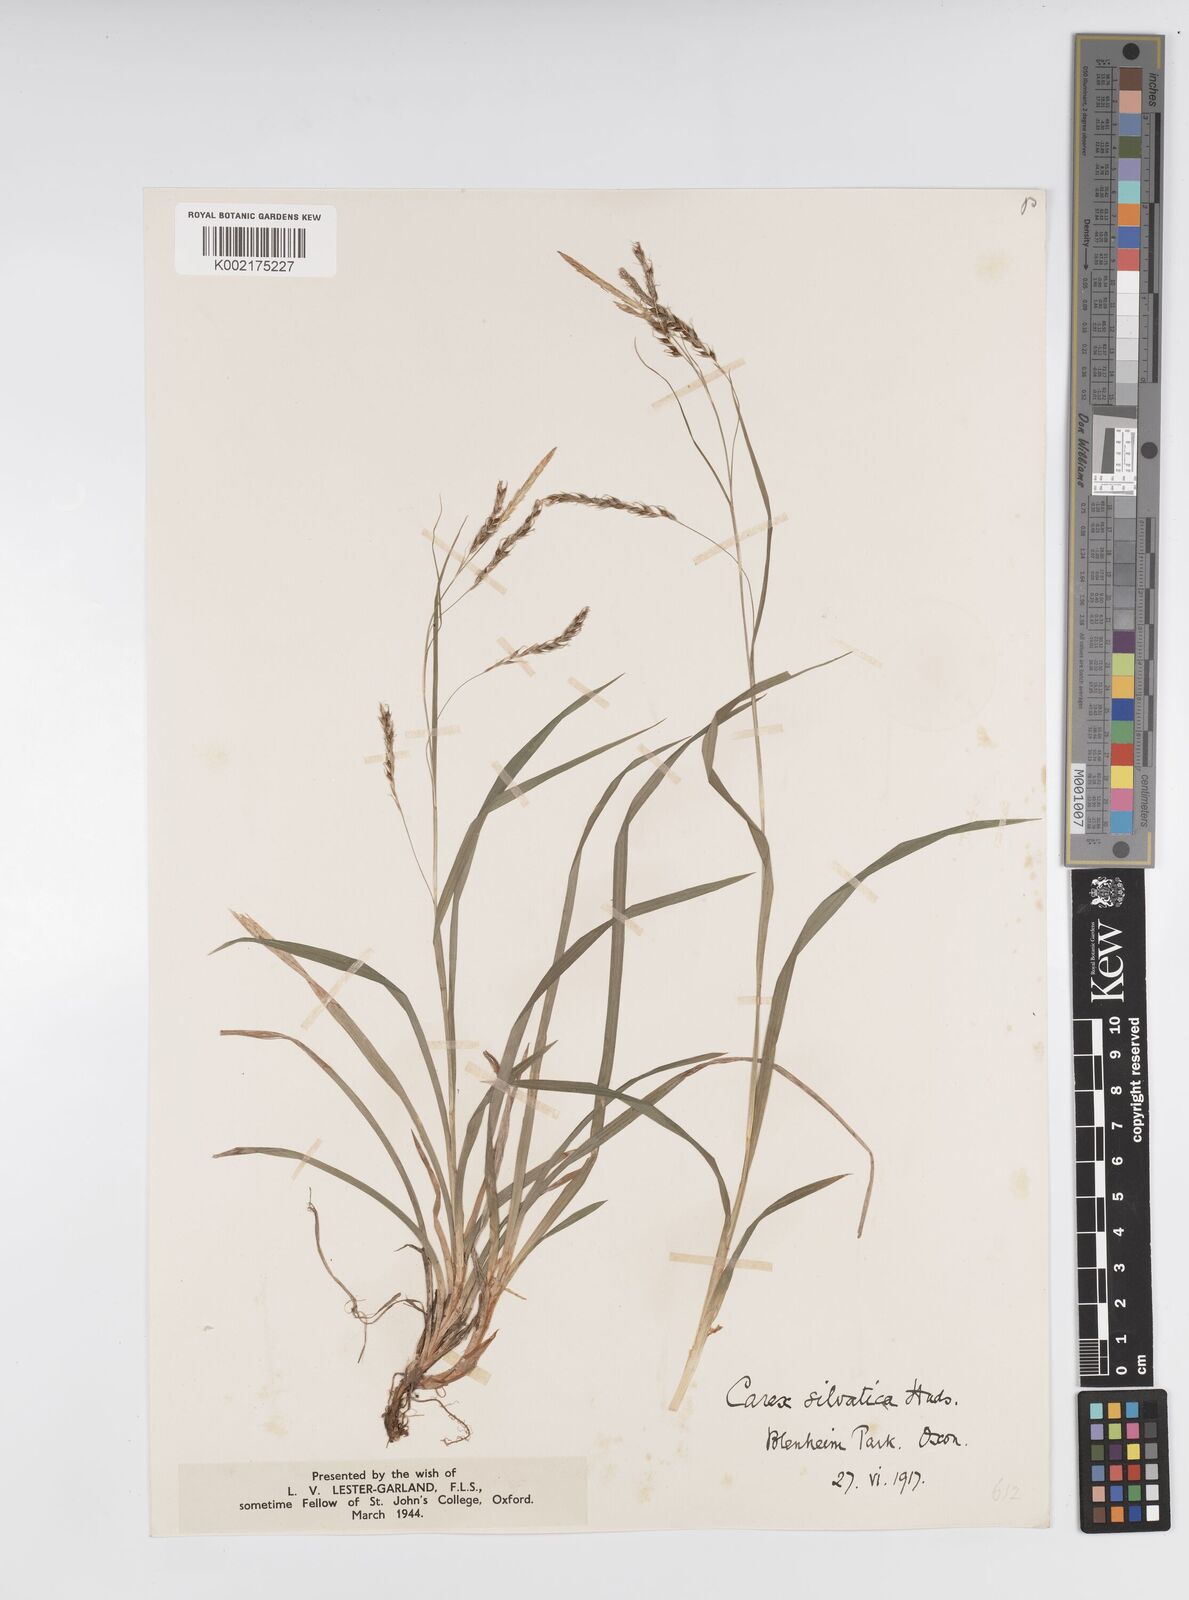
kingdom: Plantae
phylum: Tracheophyta
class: Liliopsida
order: Poales
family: Cyperaceae
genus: Carex
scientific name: Carex sylvatica
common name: Wood-sedge
